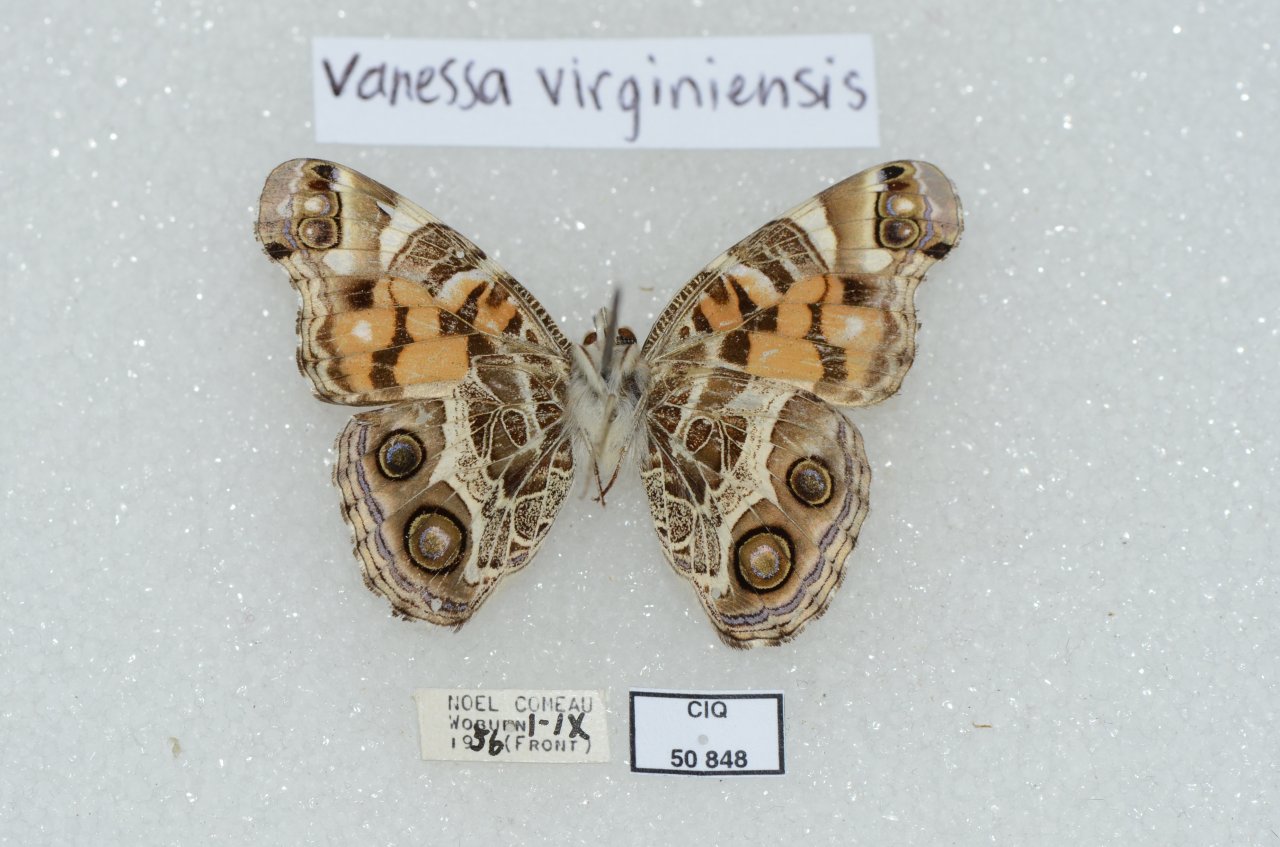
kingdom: Animalia
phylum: Arthropoda
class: Insecta
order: Lepidoptera
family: Nymphalidae
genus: Vanessa
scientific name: Vanessa virginiensis
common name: American Lady
